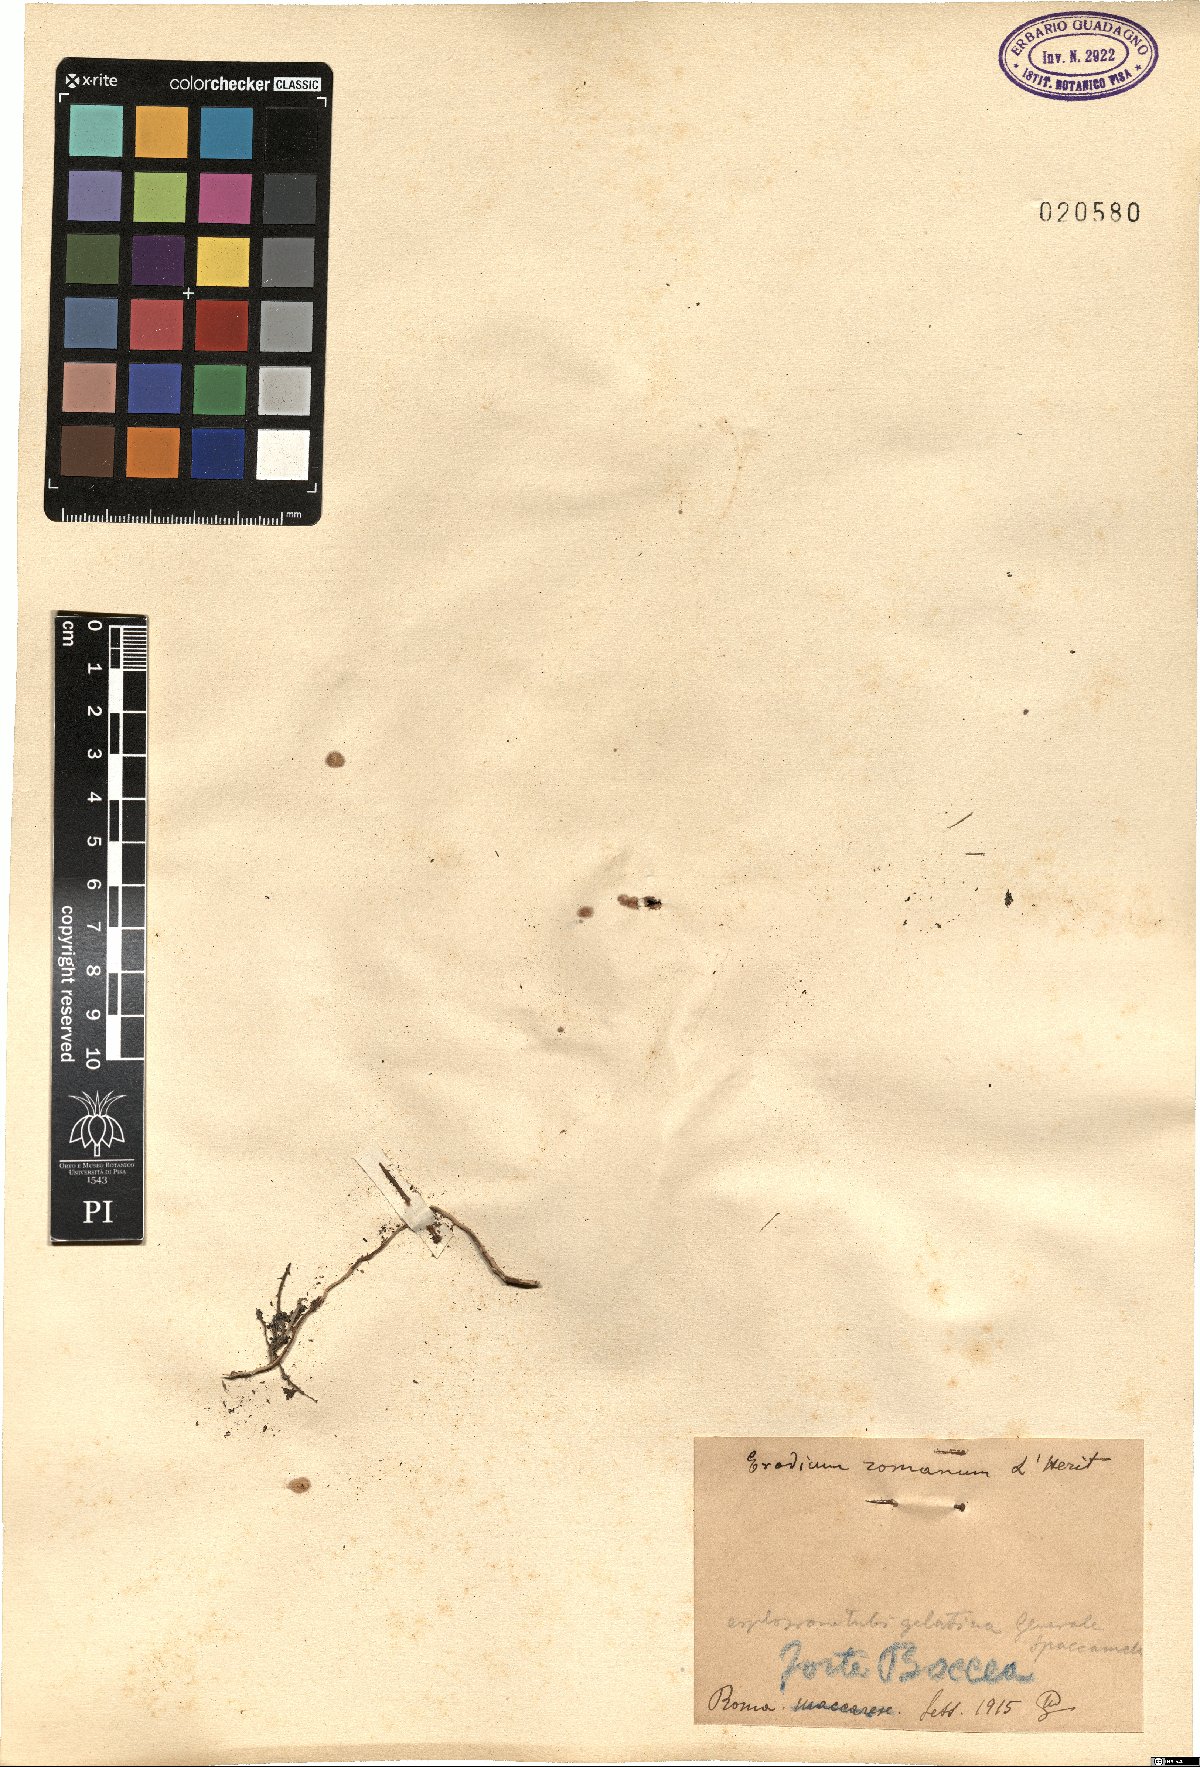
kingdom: Plantae
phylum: Tracheophyta
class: Magnoliopsida
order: Geraniales
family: Geraniaceae
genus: Erodium
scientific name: Erodium acaule
